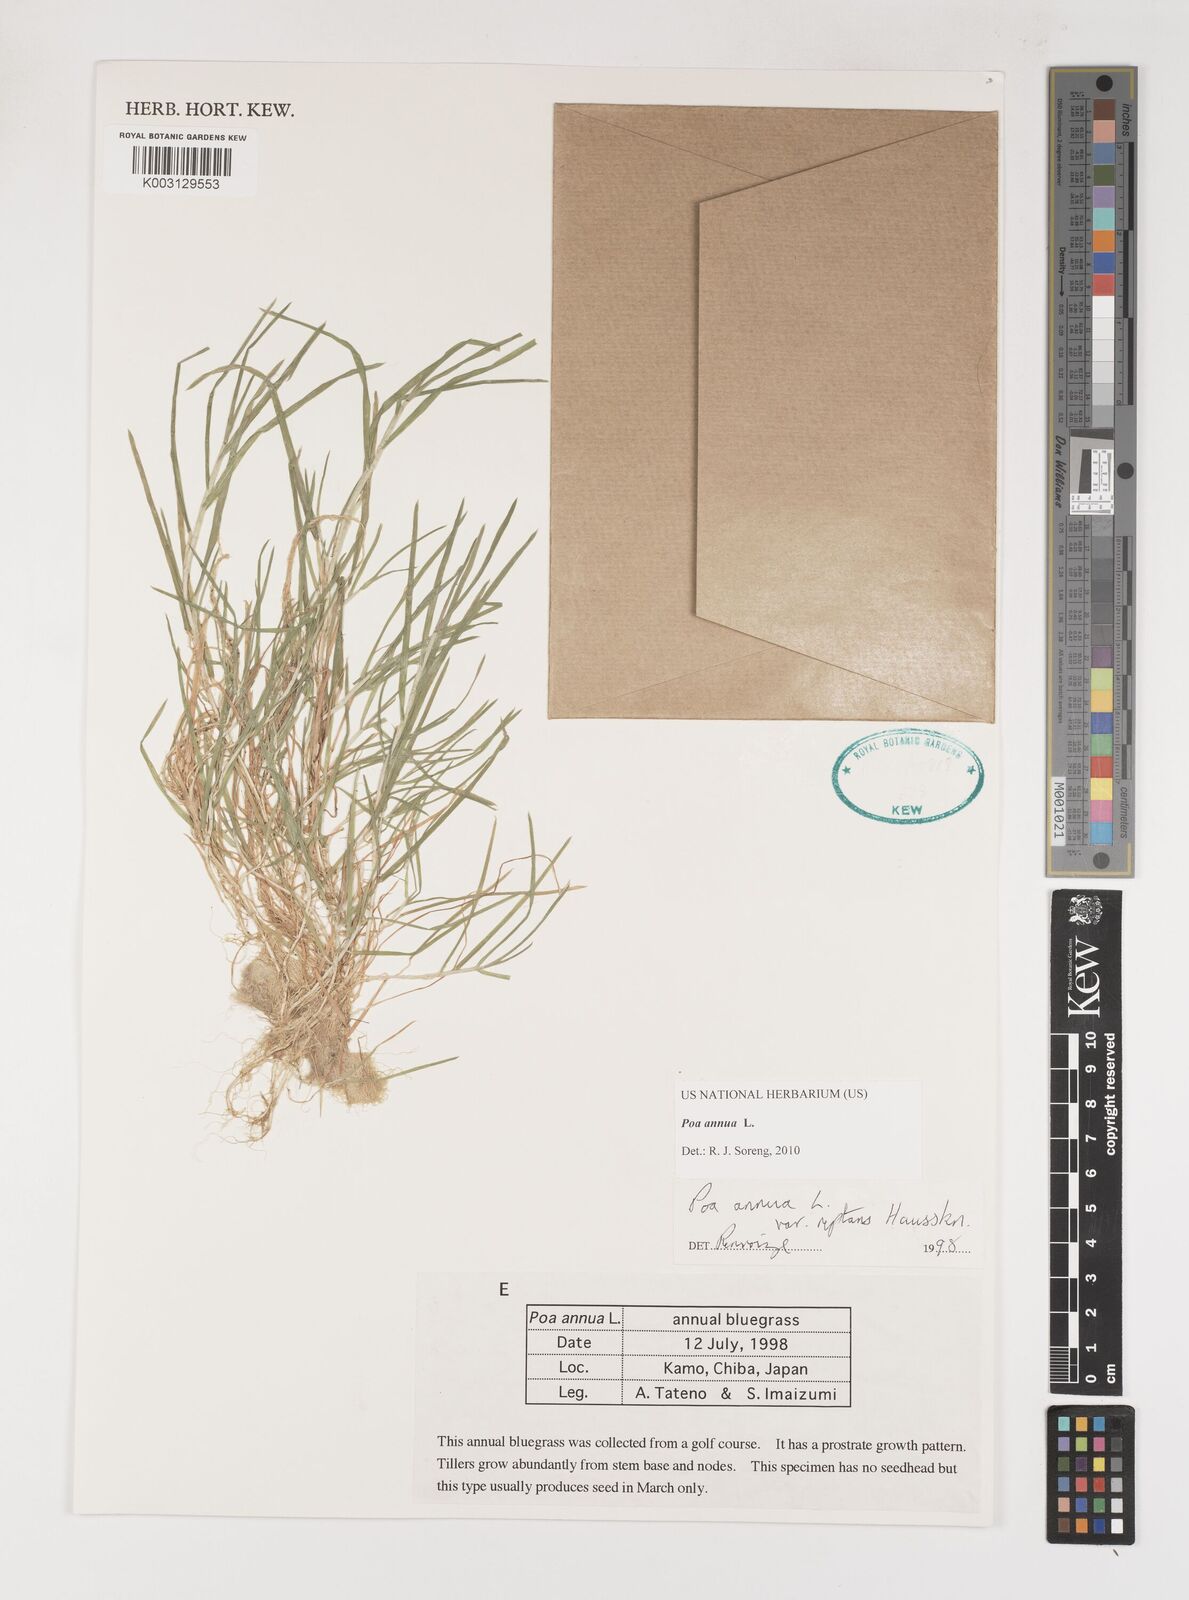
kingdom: Plantae
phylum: Tracheophyta
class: Liliopsida
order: Poales
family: Poaceae
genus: Poa
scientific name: Poa annua
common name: Annual bluegrass
